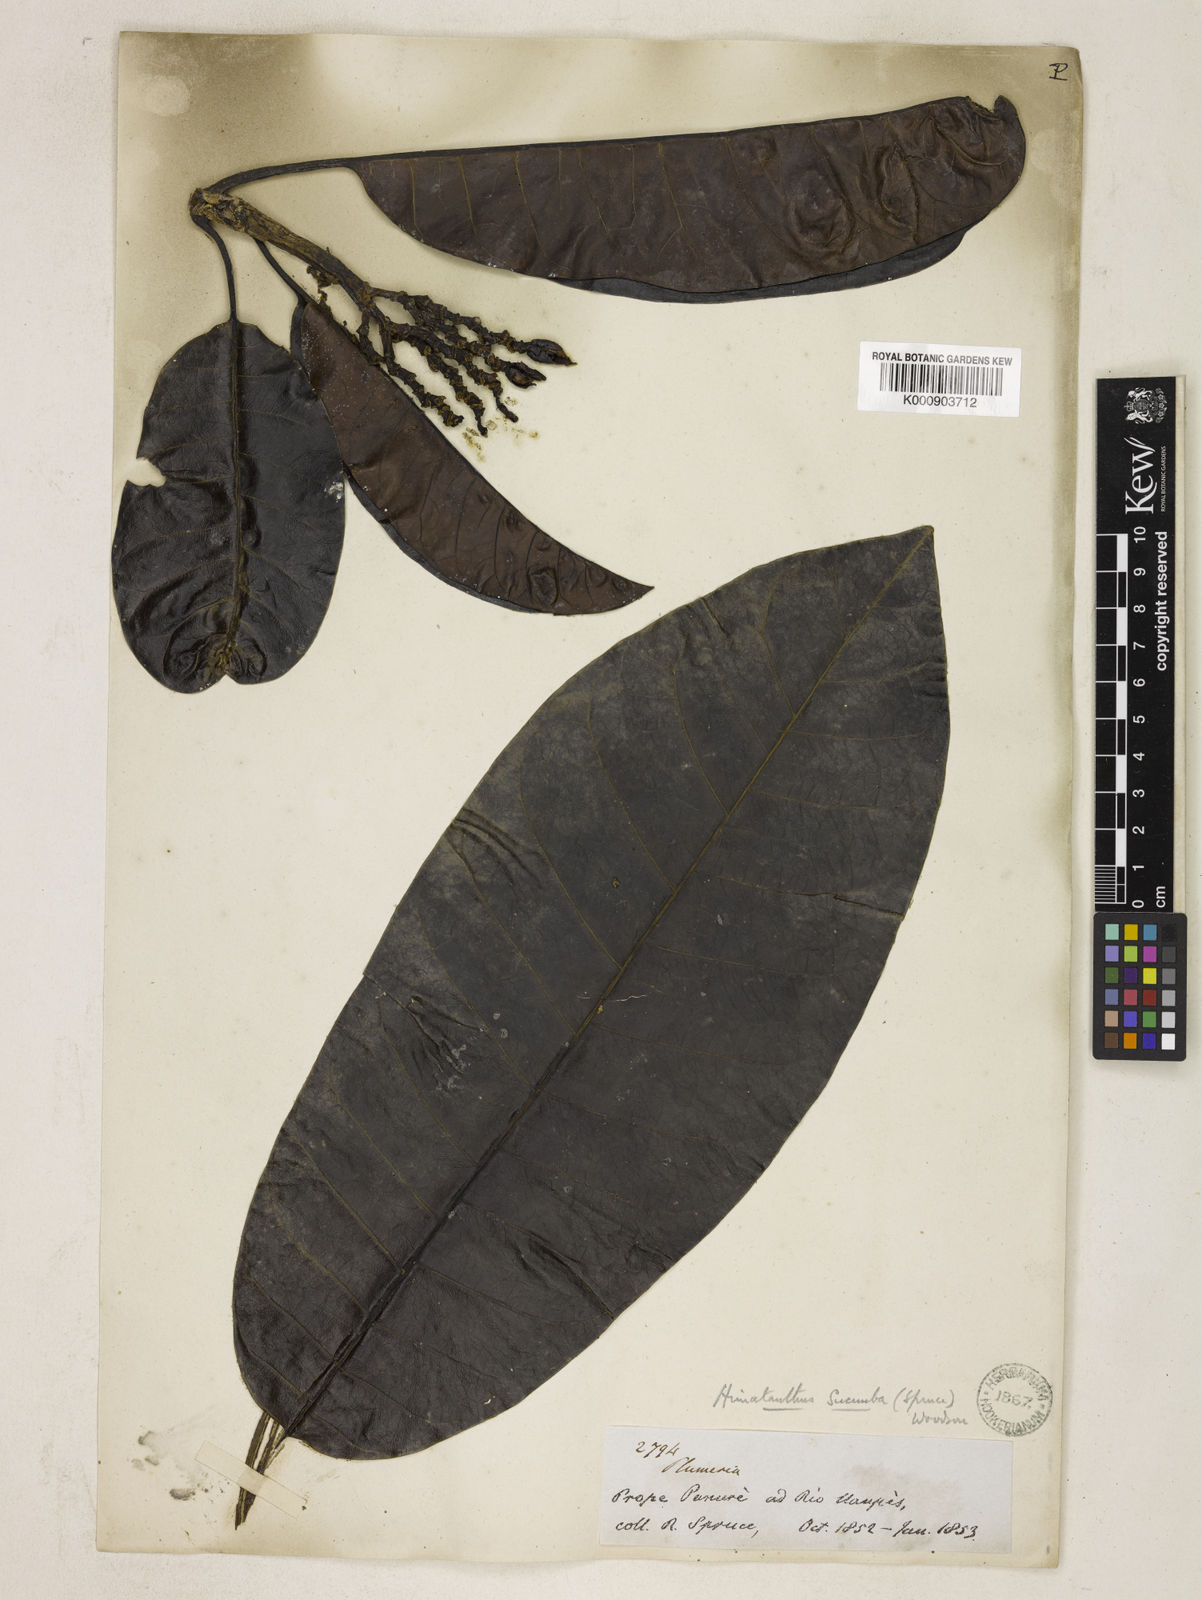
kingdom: Plantae
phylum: Tracheophyta
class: Magnoliopsida
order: Gentianales
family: Apocynaceae
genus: Himatanthus
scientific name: Himatanthus articulatus
